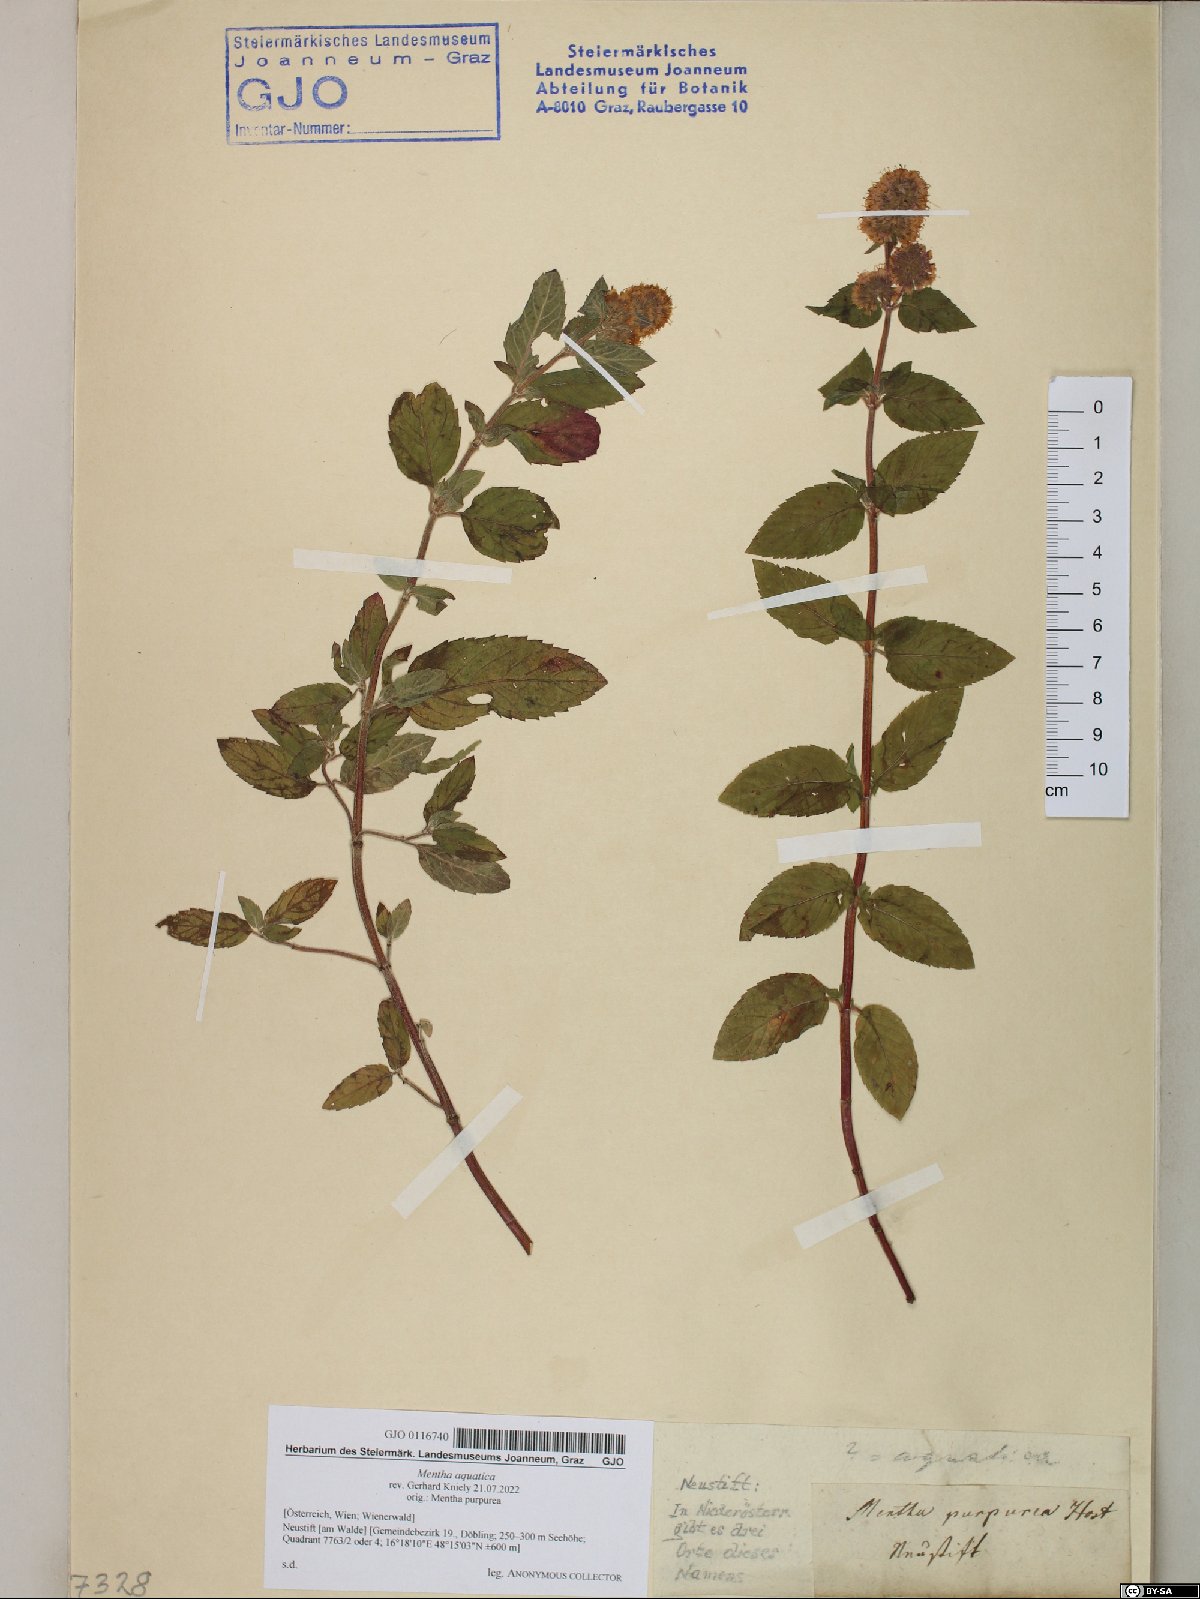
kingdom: Plantae
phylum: Tracheophyta
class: Magnoliopsida
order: Lamiales
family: Lamiaceae
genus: Mentha
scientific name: Mentha aquatica
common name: Water mint
